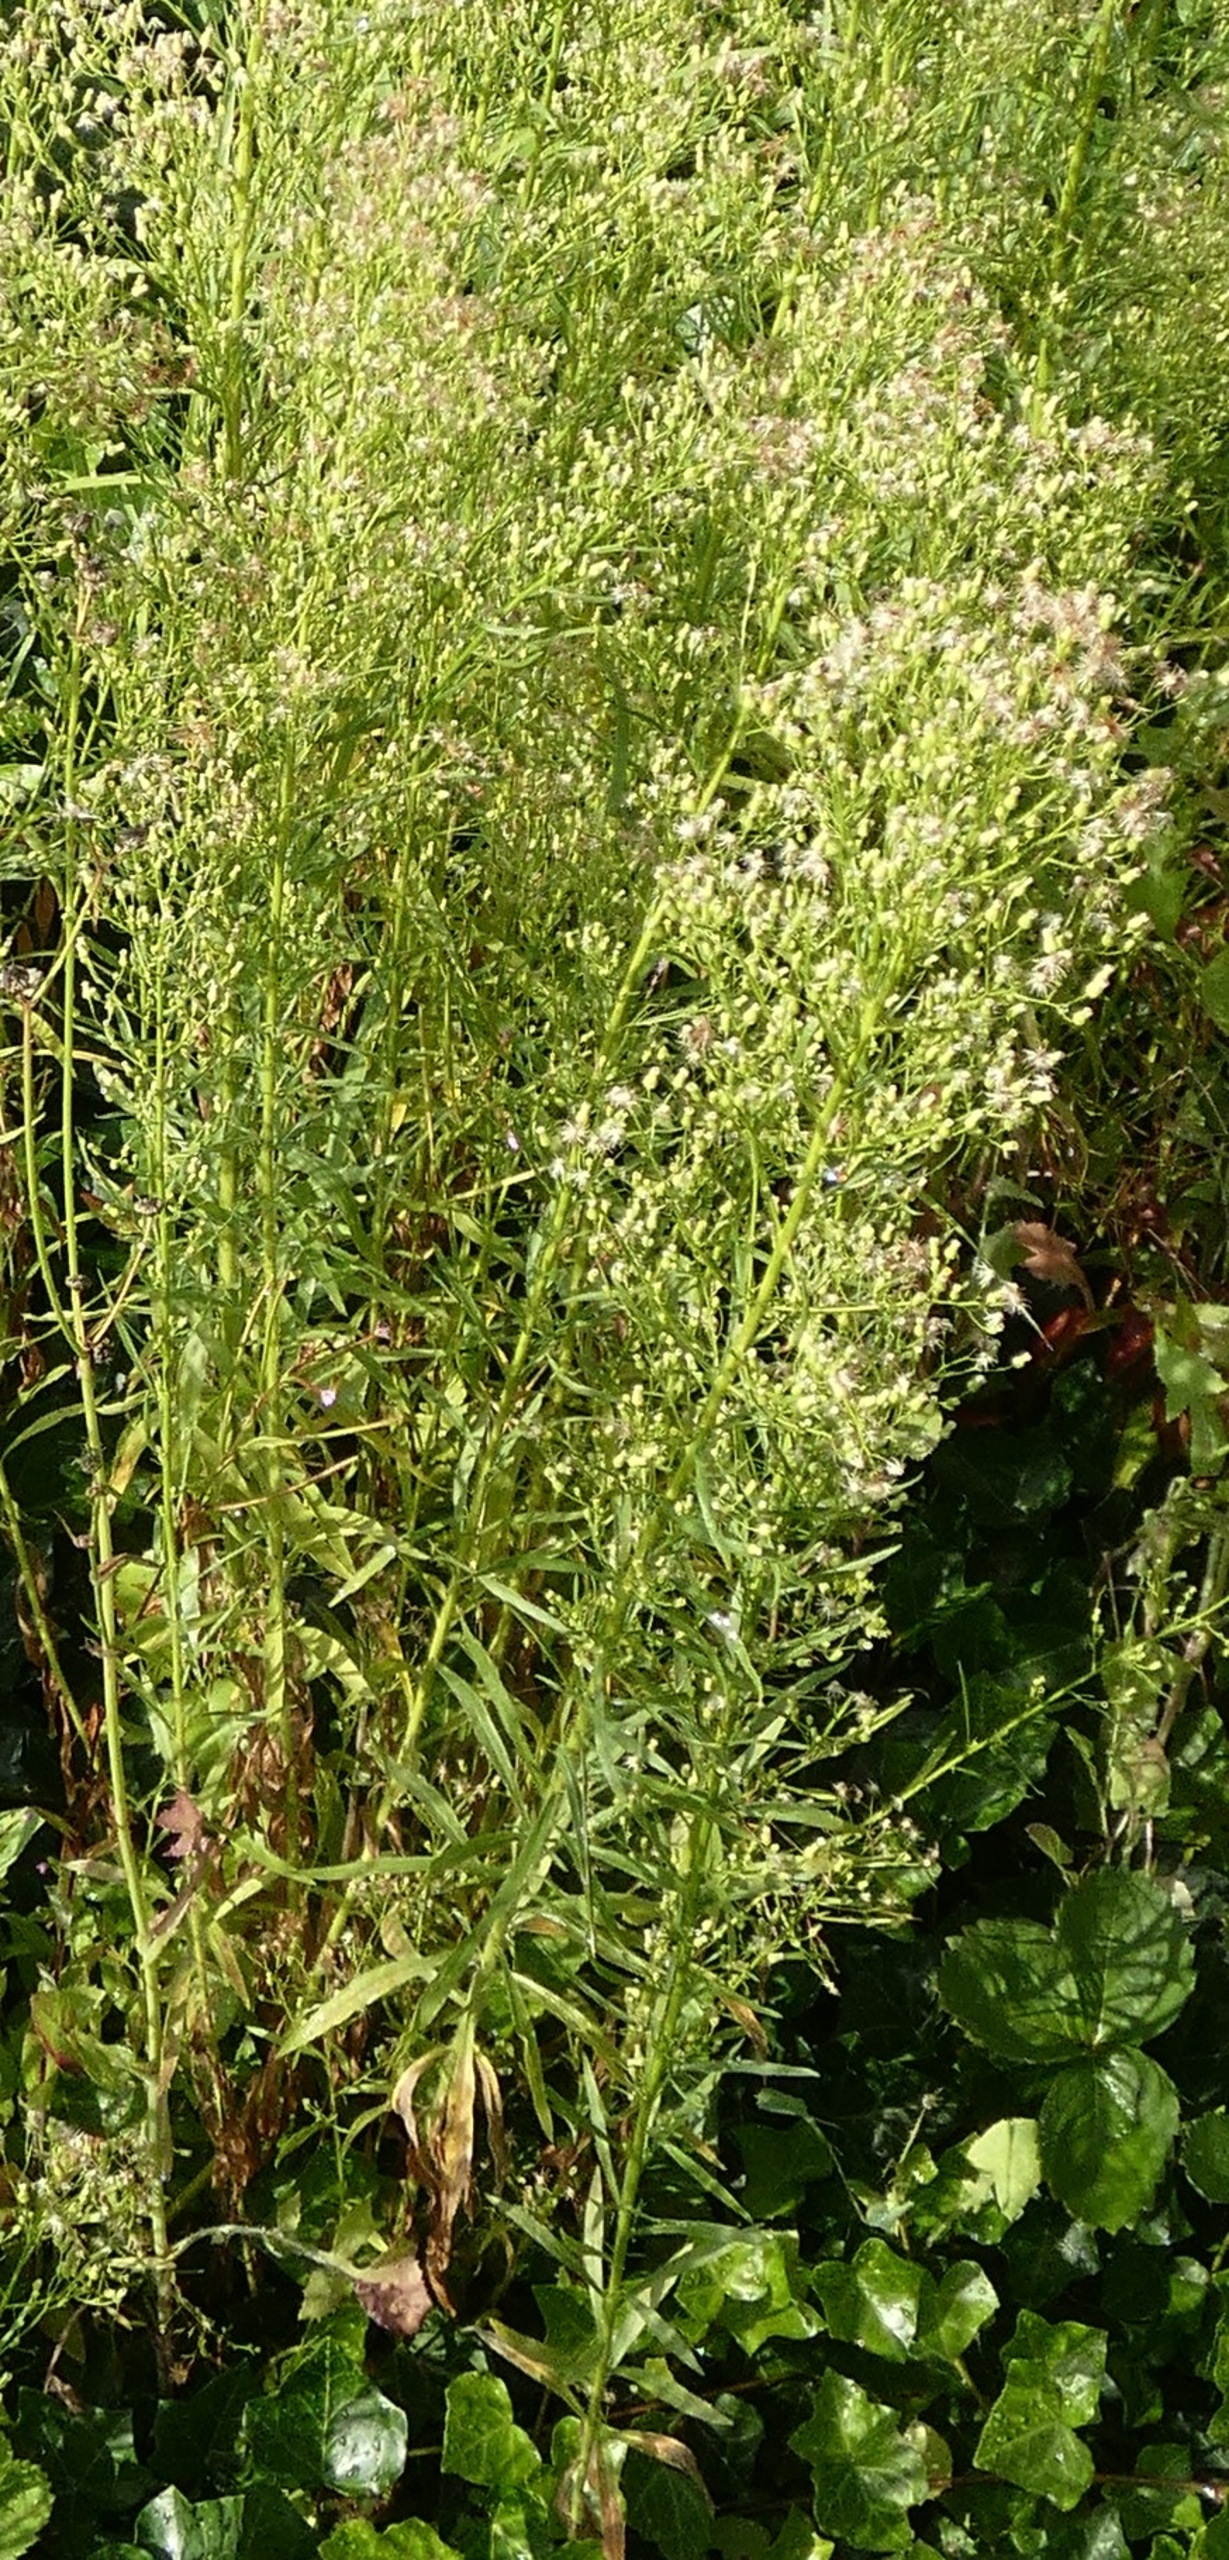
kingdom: Plantae
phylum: Tracheophyta
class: Magnoliopsida
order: Asterales
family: Asteraceae
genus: Erigeron
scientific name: Erigeron canadensis
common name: Kanadisk bakkestjerne
